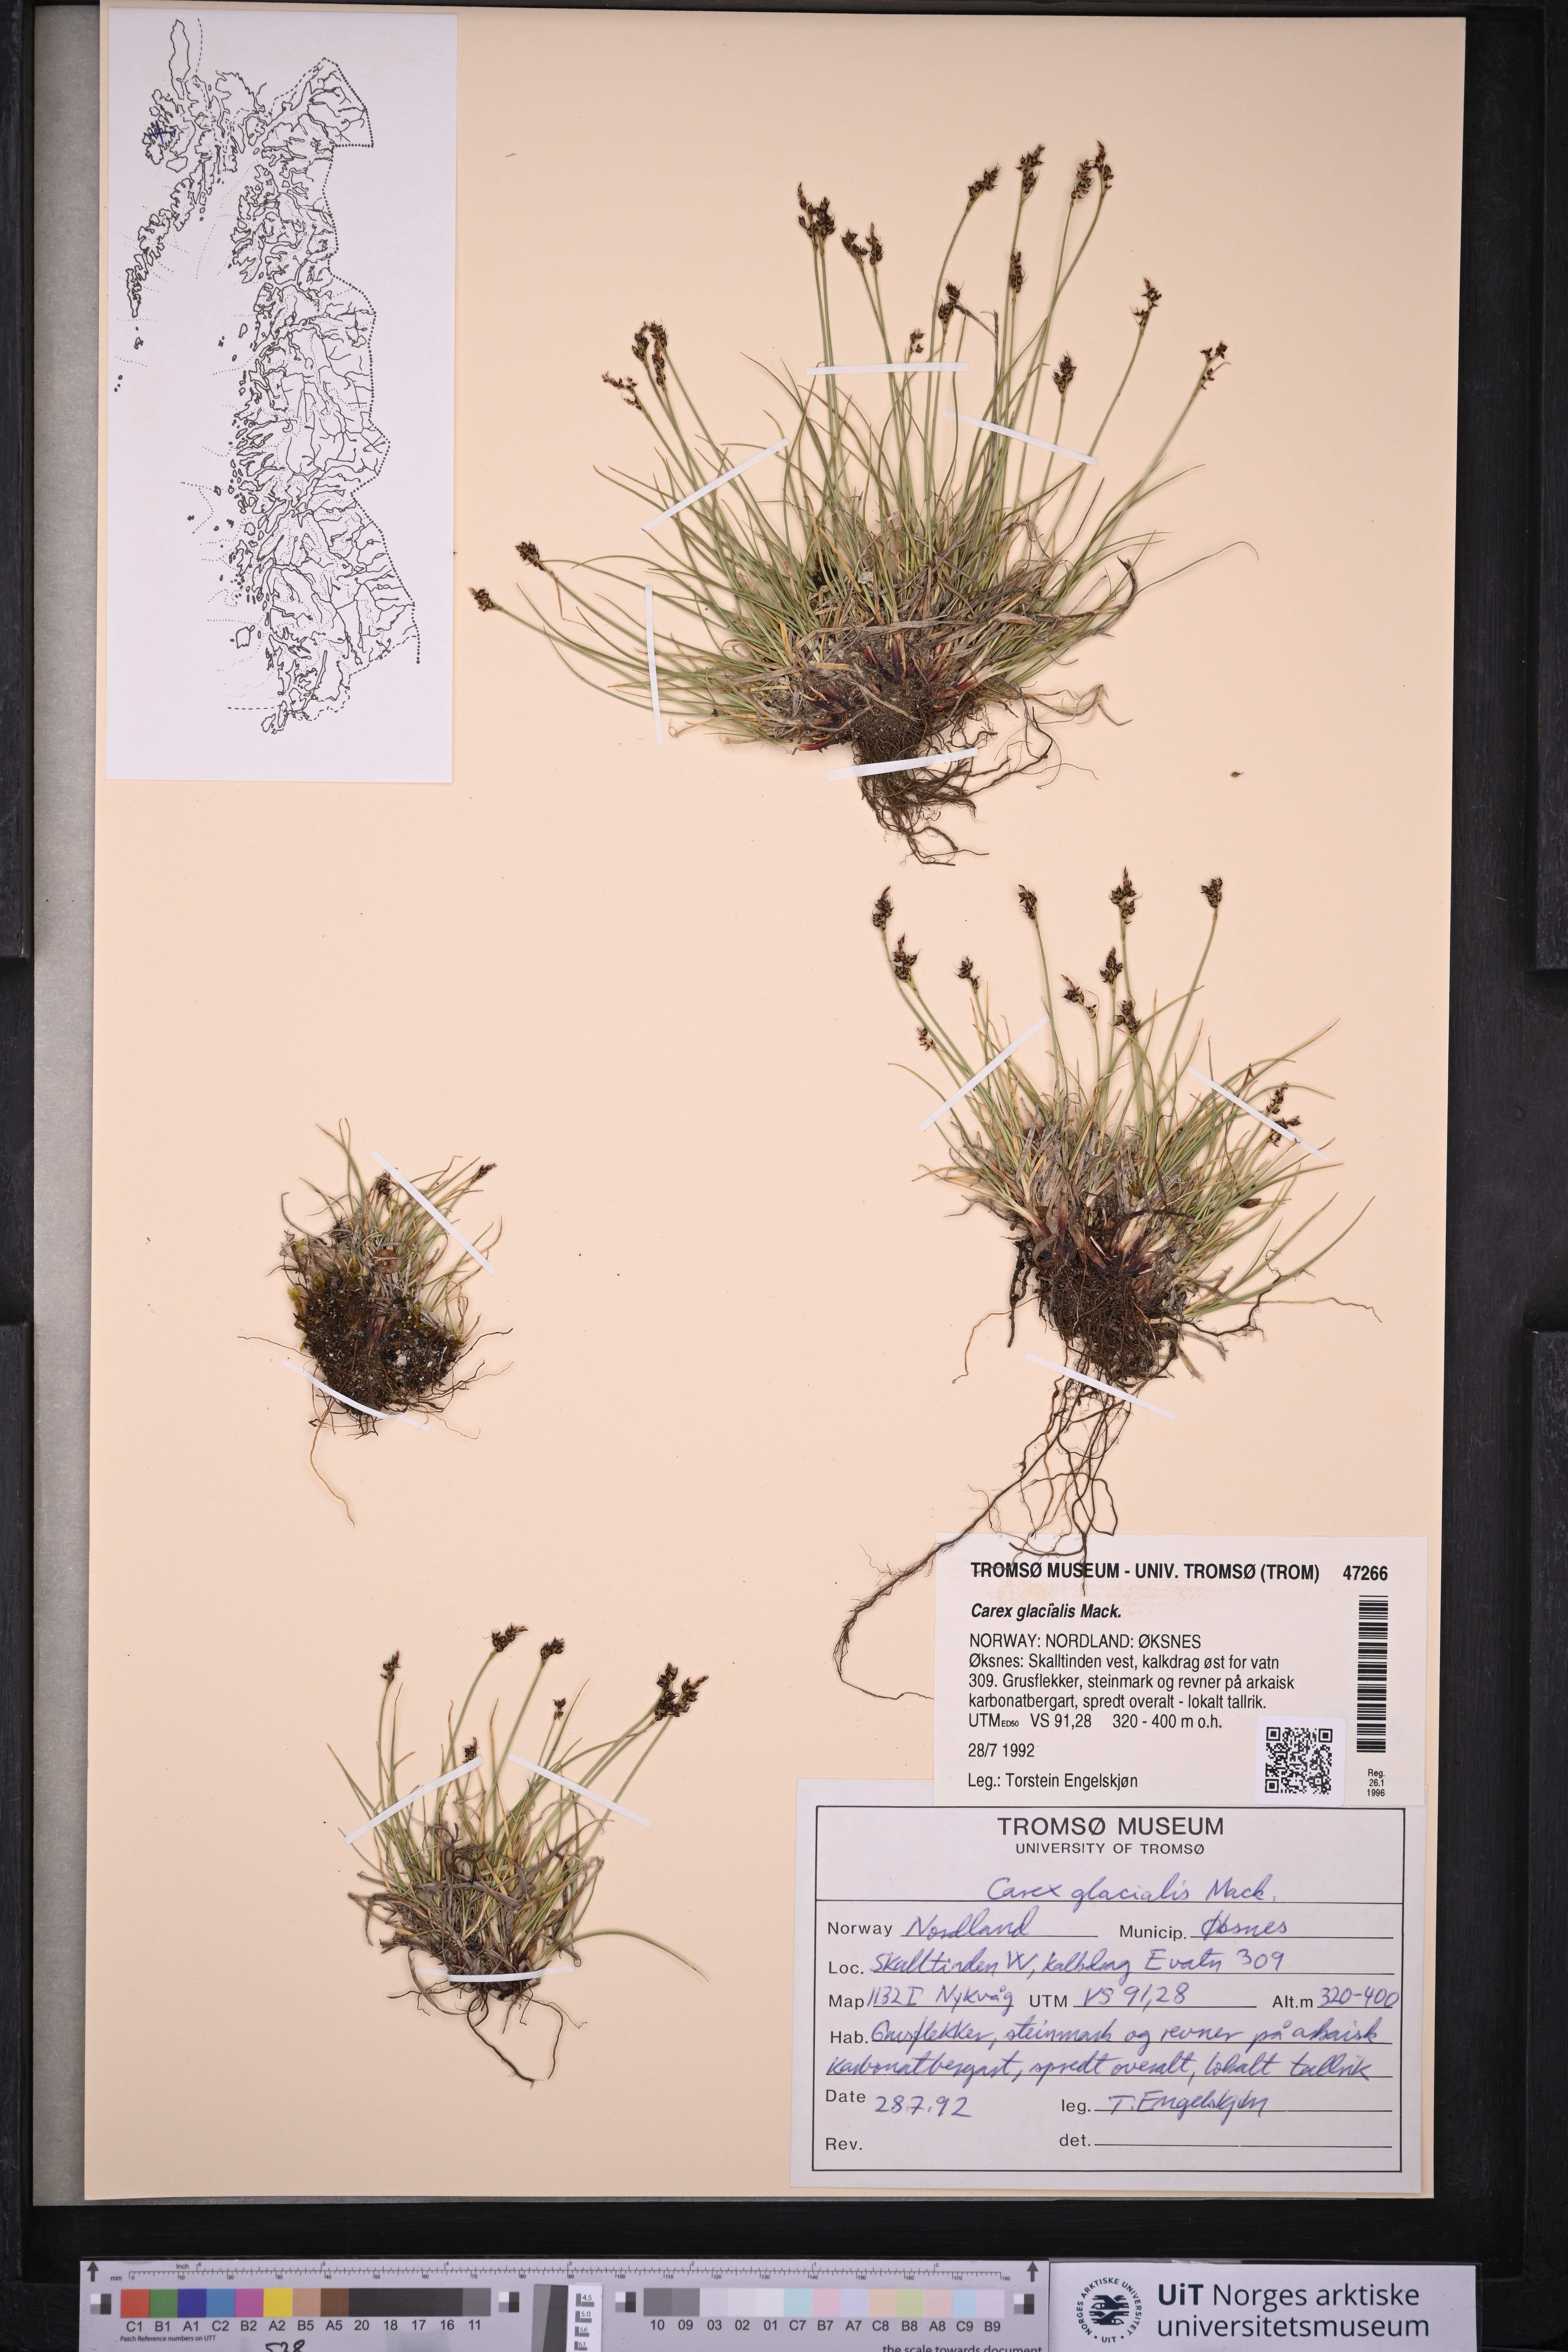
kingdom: Plantae
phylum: Tracheophyta
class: Liliopsida
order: Poales
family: Cyperaceae
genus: Carex
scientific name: Carex glacialis
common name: Newfoundland sedge
